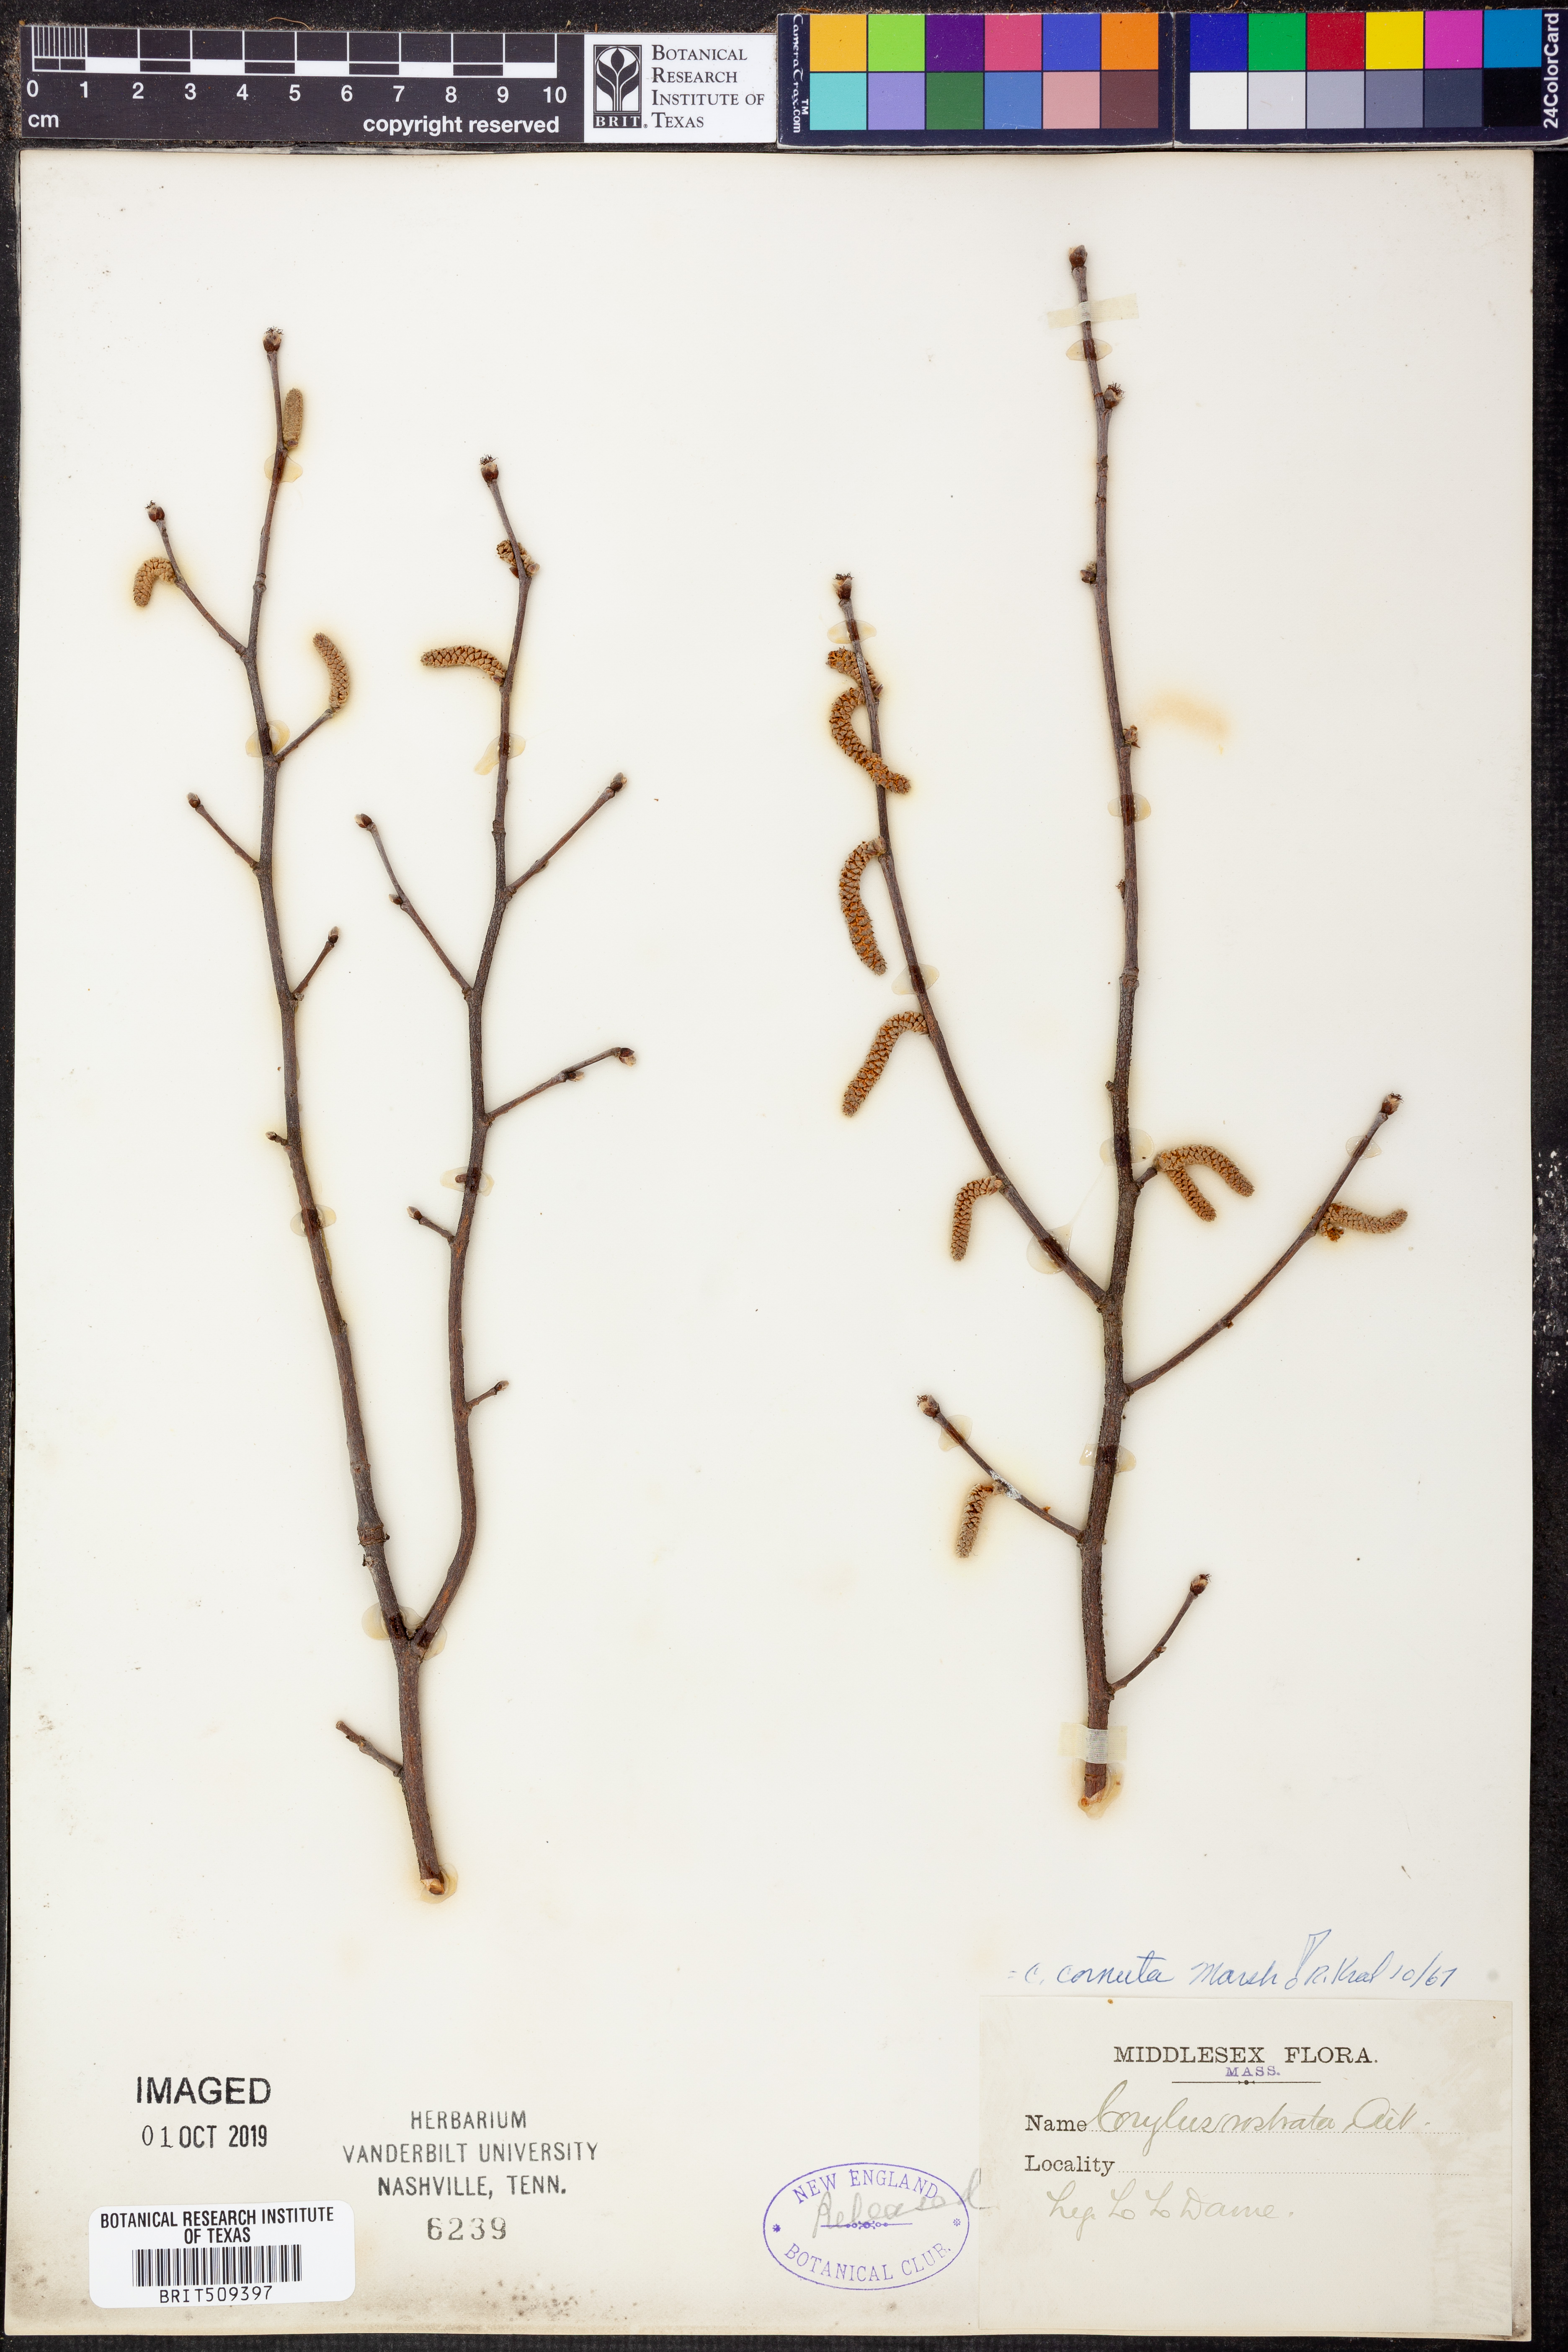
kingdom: Plantae
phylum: Tracheophyta
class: Magnoliopsida
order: Fagales
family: Betulaceae
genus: Corylus
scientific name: Corylus cornuta
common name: Beaked hazel
